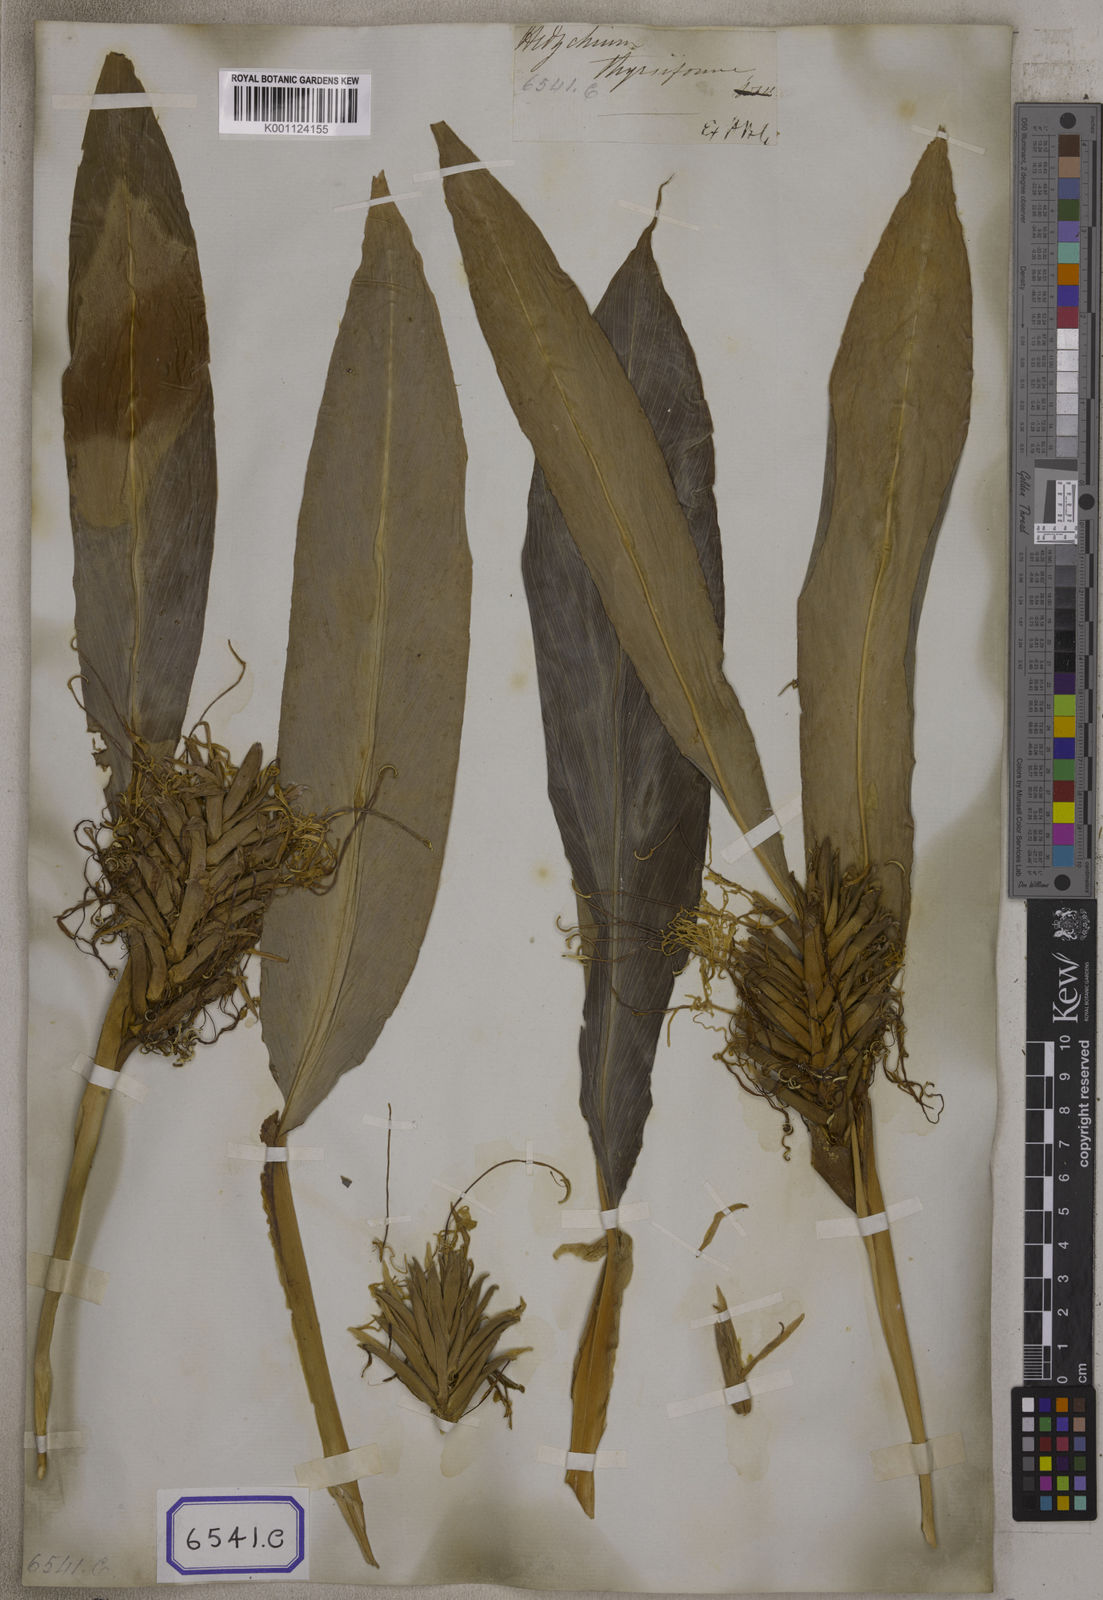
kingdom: Plantae
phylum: Tracheophyta
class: Liliopsida
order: Zingiberales
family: Zingiberaceae
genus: Hedychium
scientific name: Hedychium thyrsiforme
